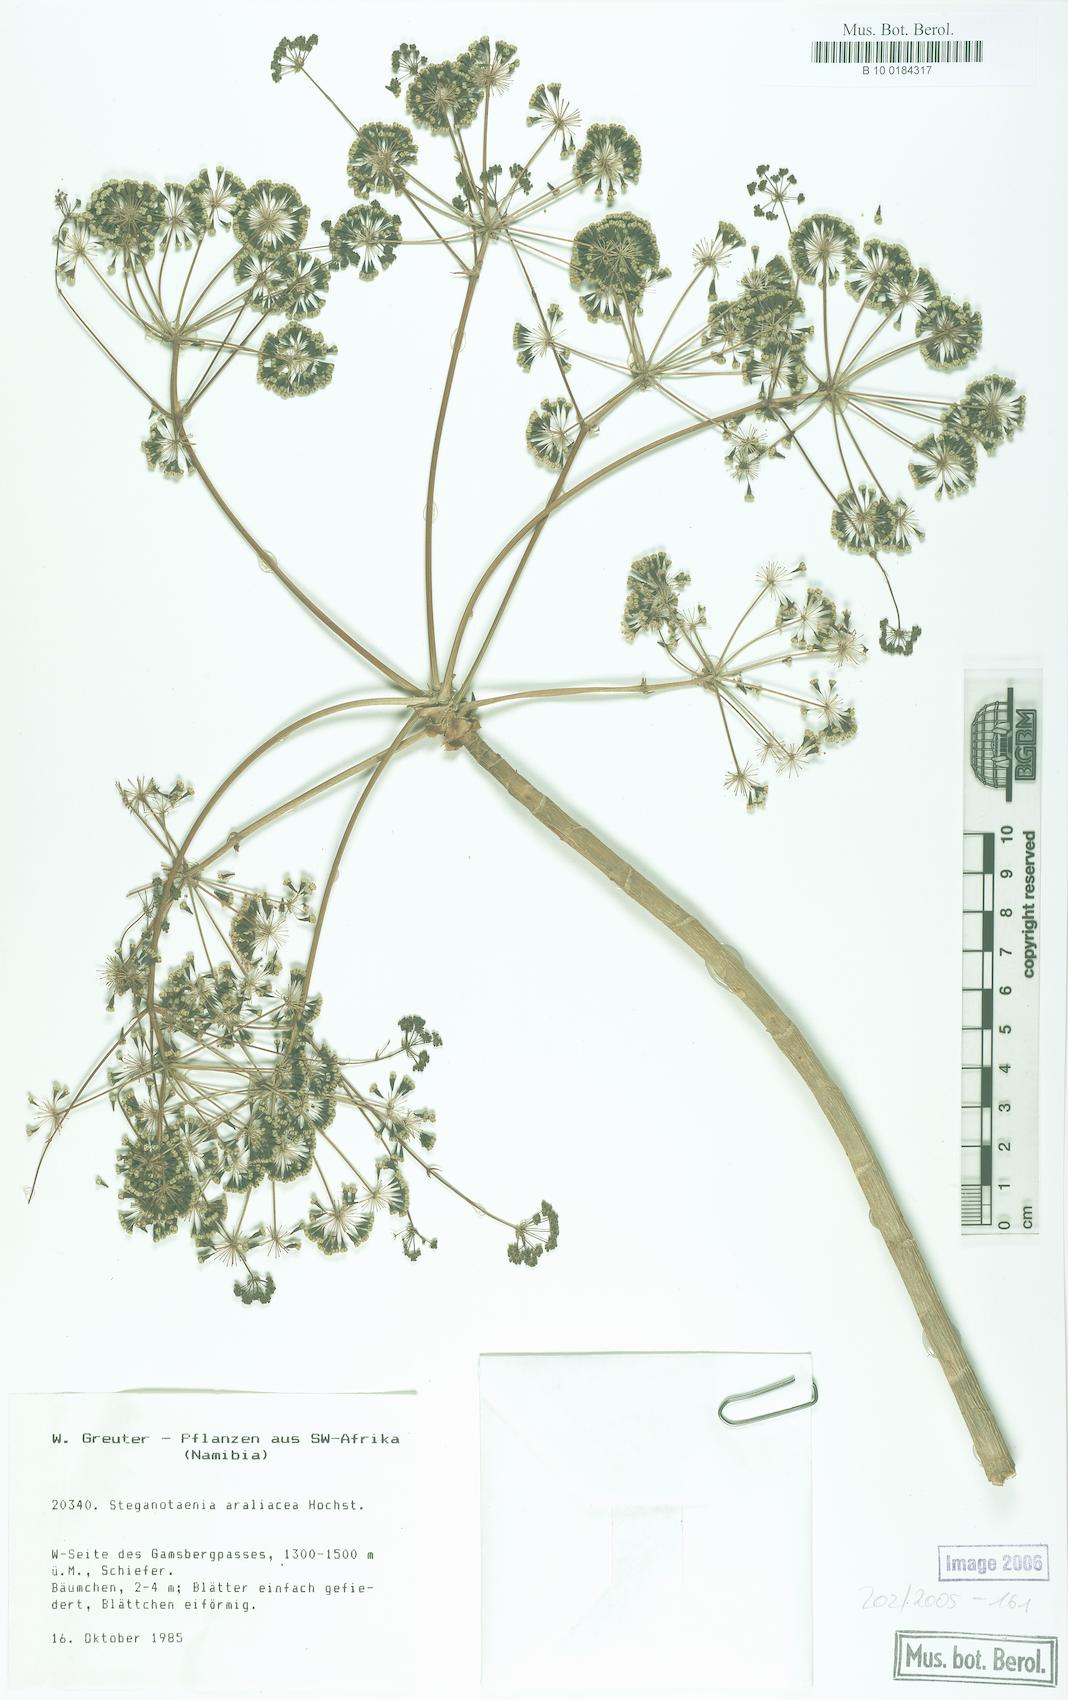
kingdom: Plantae
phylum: Tracheophyta
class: Magnoliopsida
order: Apiales
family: Apiaceae
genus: Steganotaenia
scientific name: Steganotaenia araliacea
